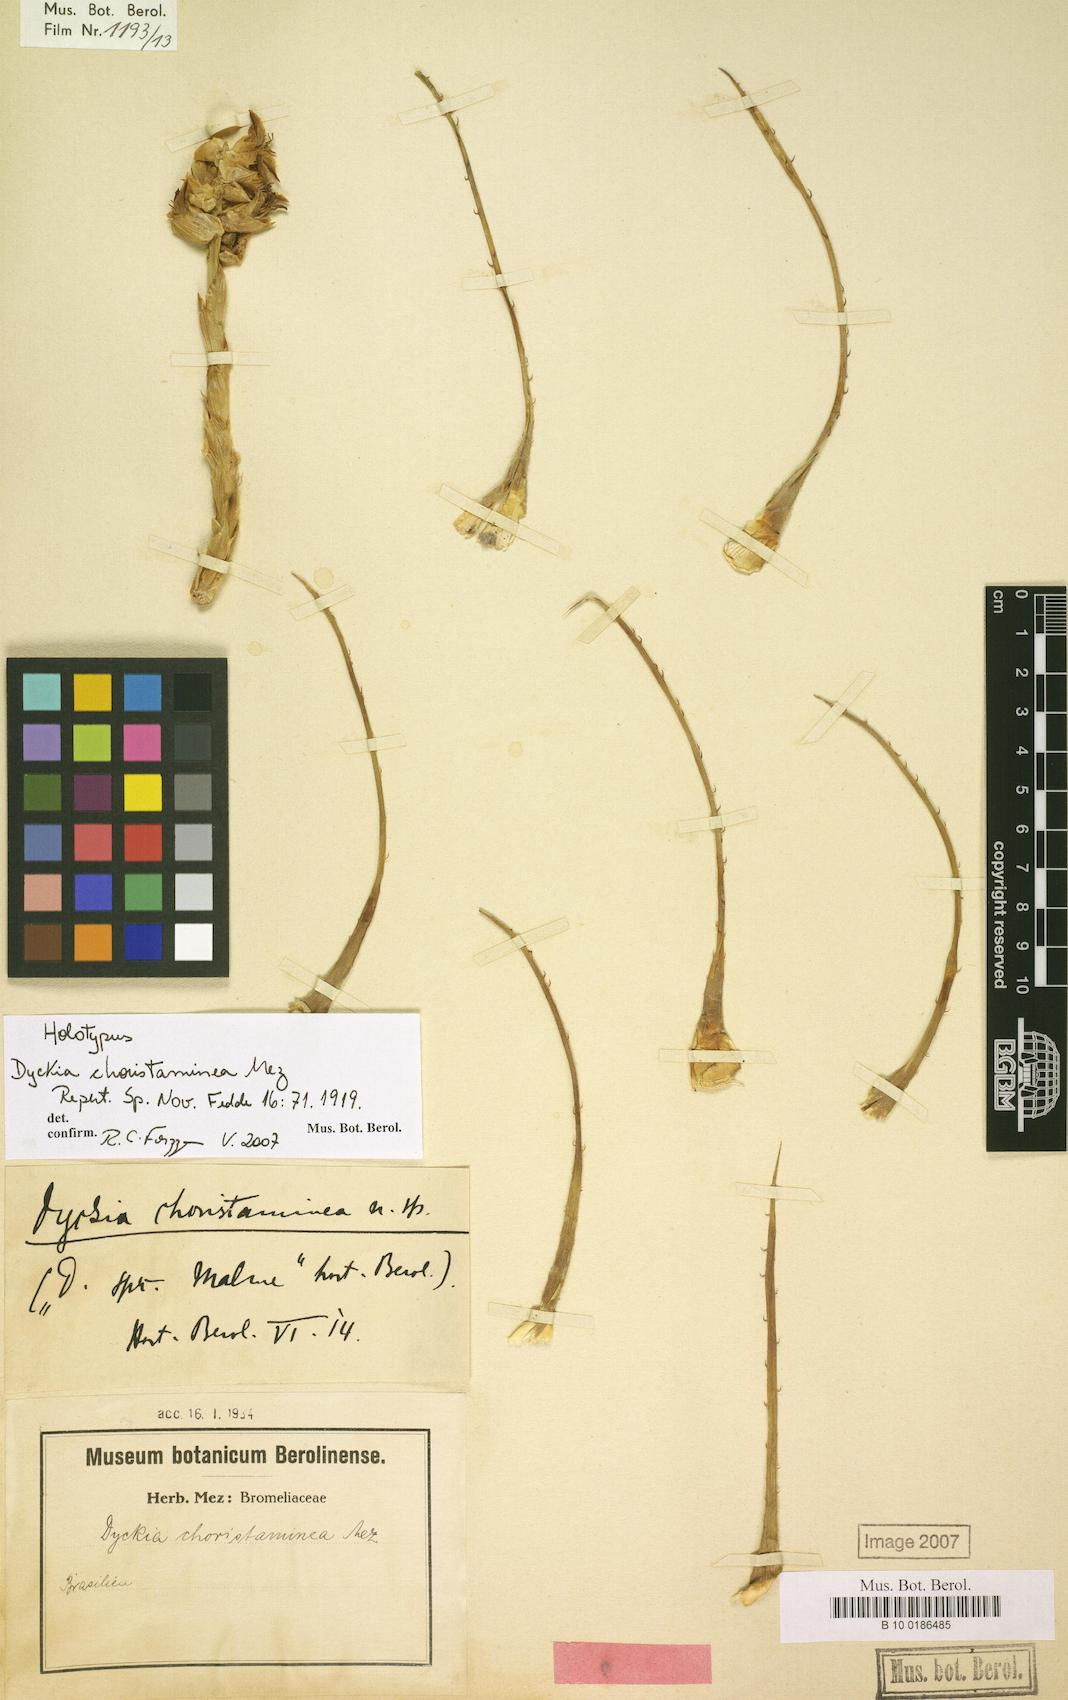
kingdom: Plantae
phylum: Tracheophyta
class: Liliopsida
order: Poales
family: Bromeliaceae
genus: Dyckia
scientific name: Dyckia choristaminea
